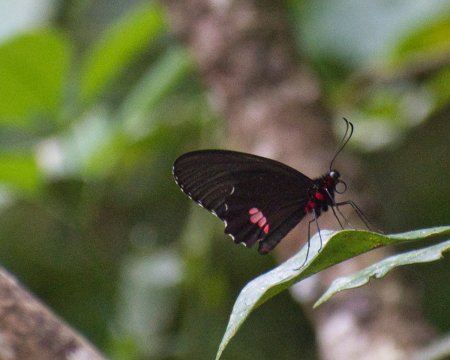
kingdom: Animalia
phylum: Arthropoda
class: Insecta
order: Lepidoptera
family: Papilionidae
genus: Parides
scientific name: Parides sesostris
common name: Emerald-patched Cattleheart
